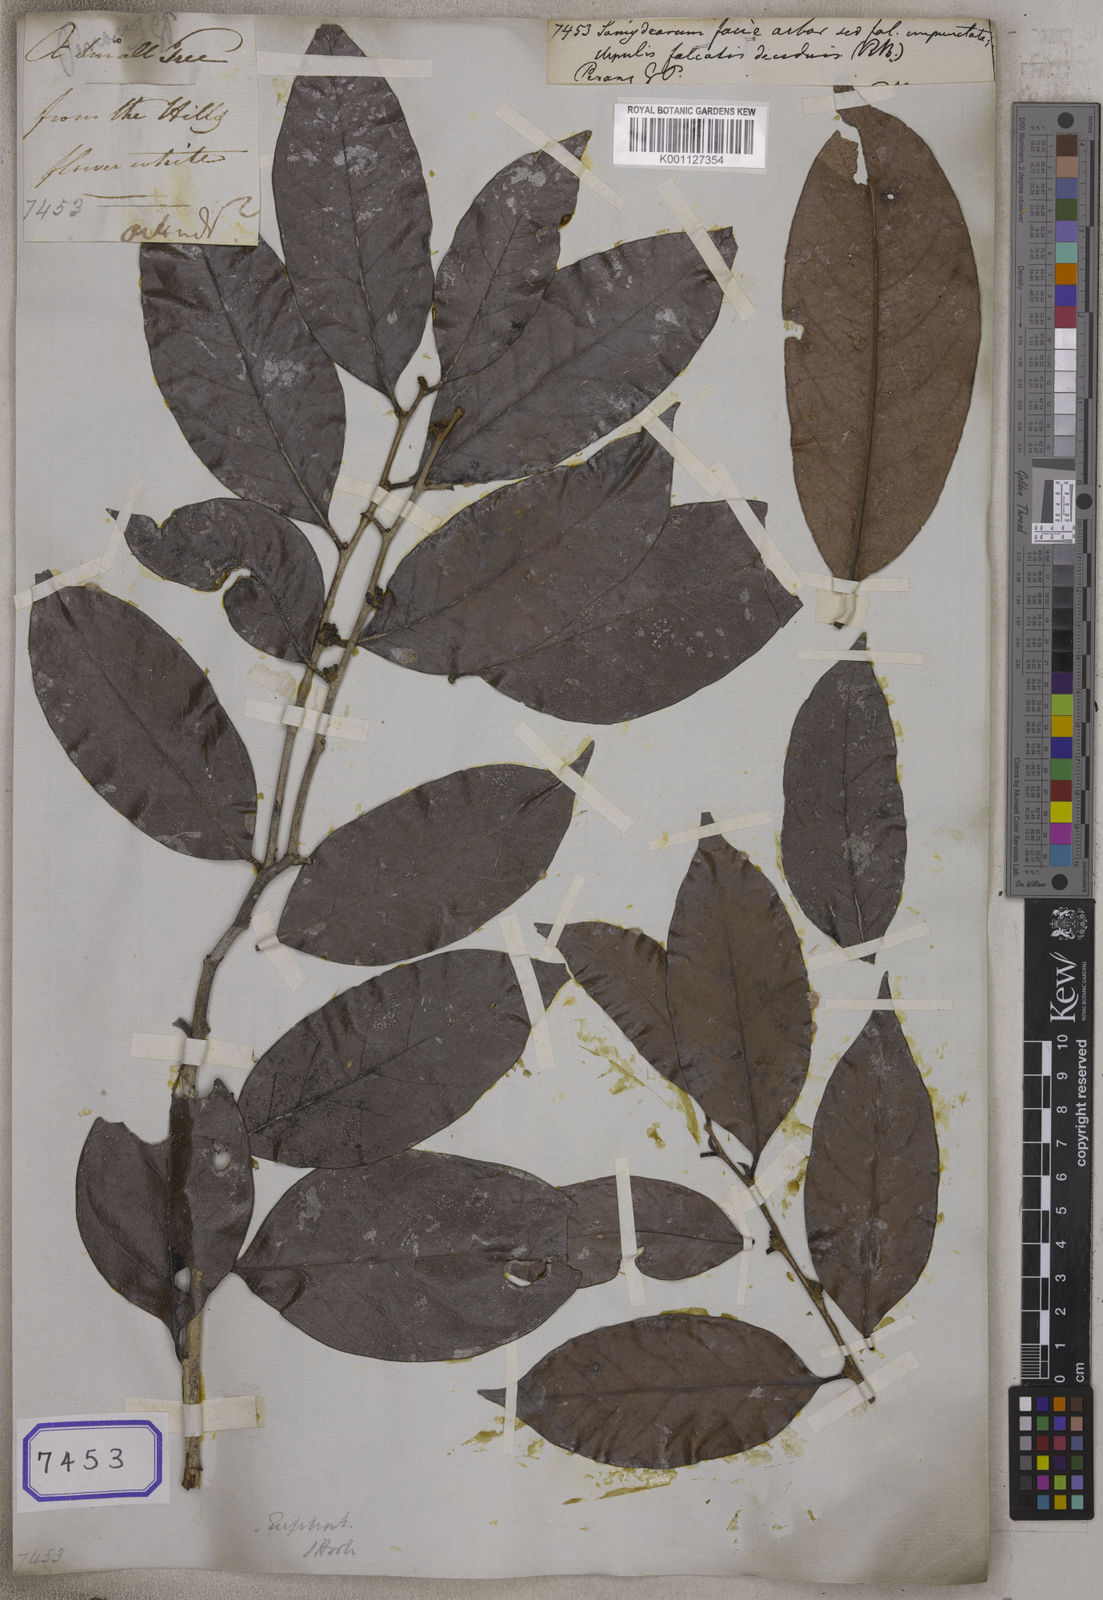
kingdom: Plantae
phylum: Tracheophyta
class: Magnoliopsida
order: Sapindales
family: Meliaceae
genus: Guarea
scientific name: Guarea
